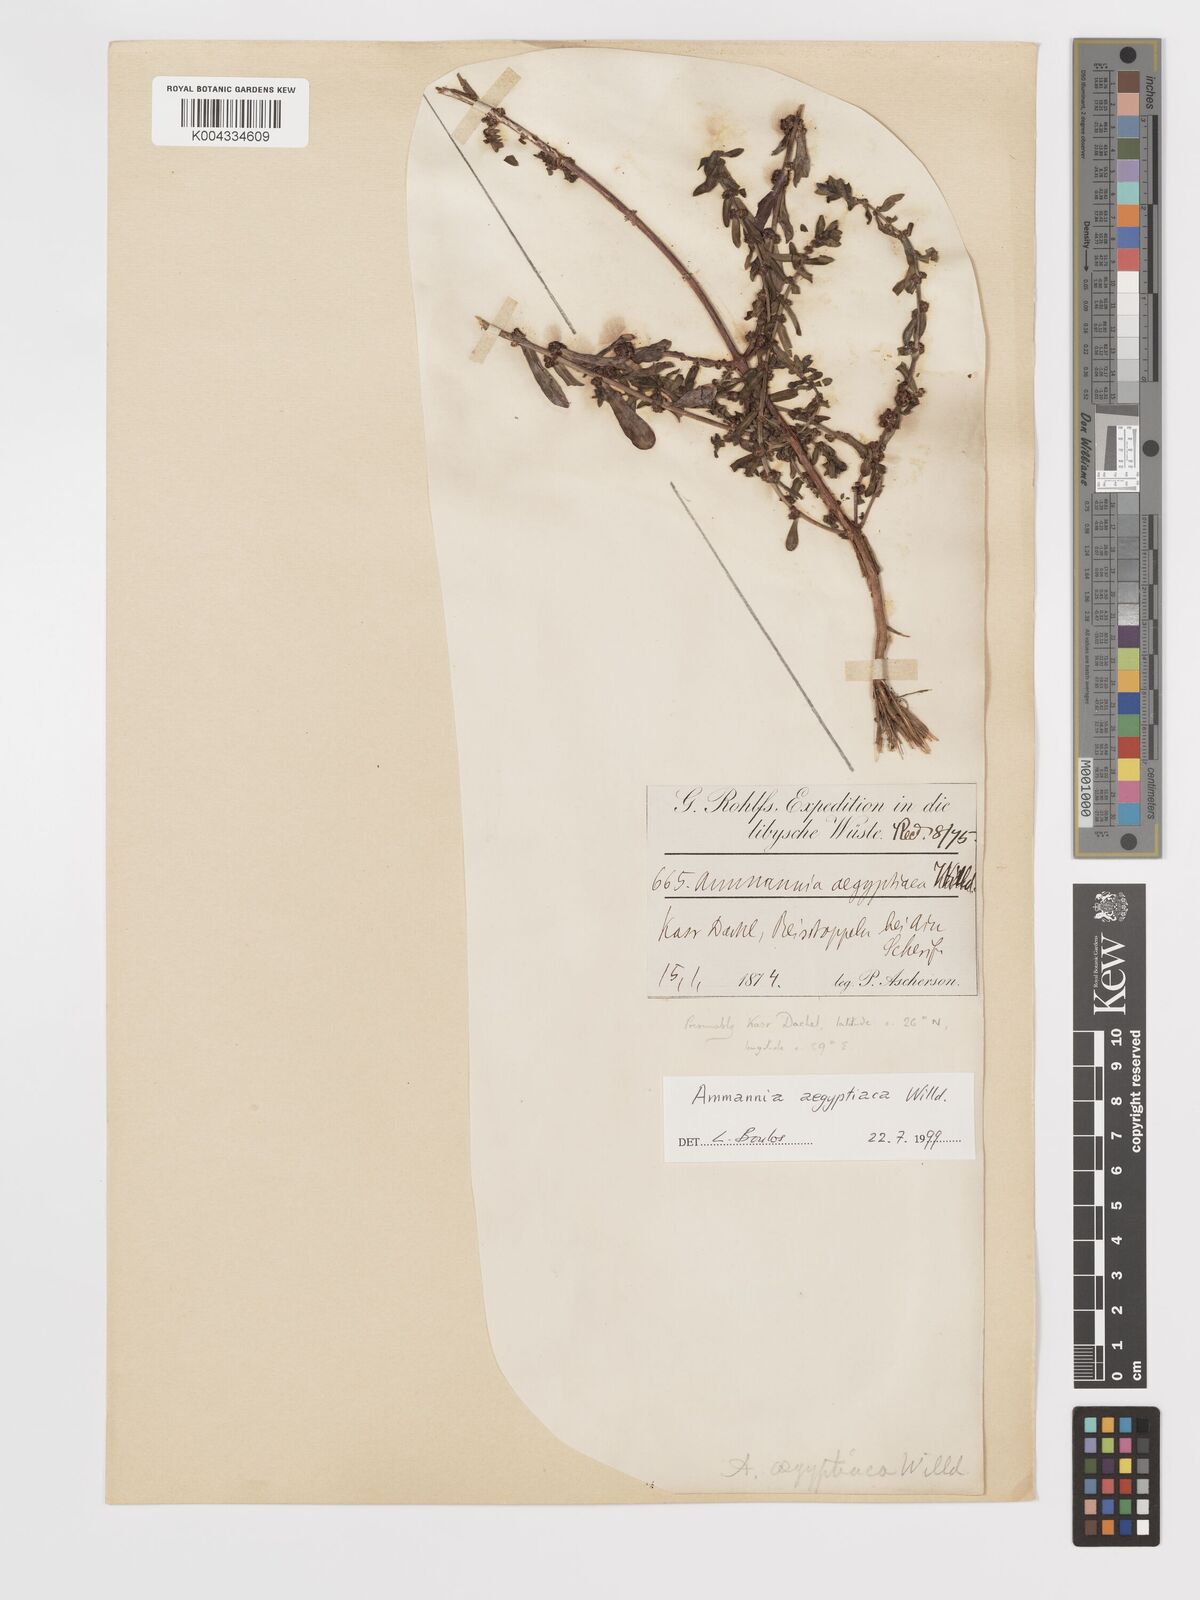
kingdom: Plantae
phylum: Tracheophyta
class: Magnoliopsida
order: Myrtales
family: Lythraceae
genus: Ammannia
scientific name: Ammannia
